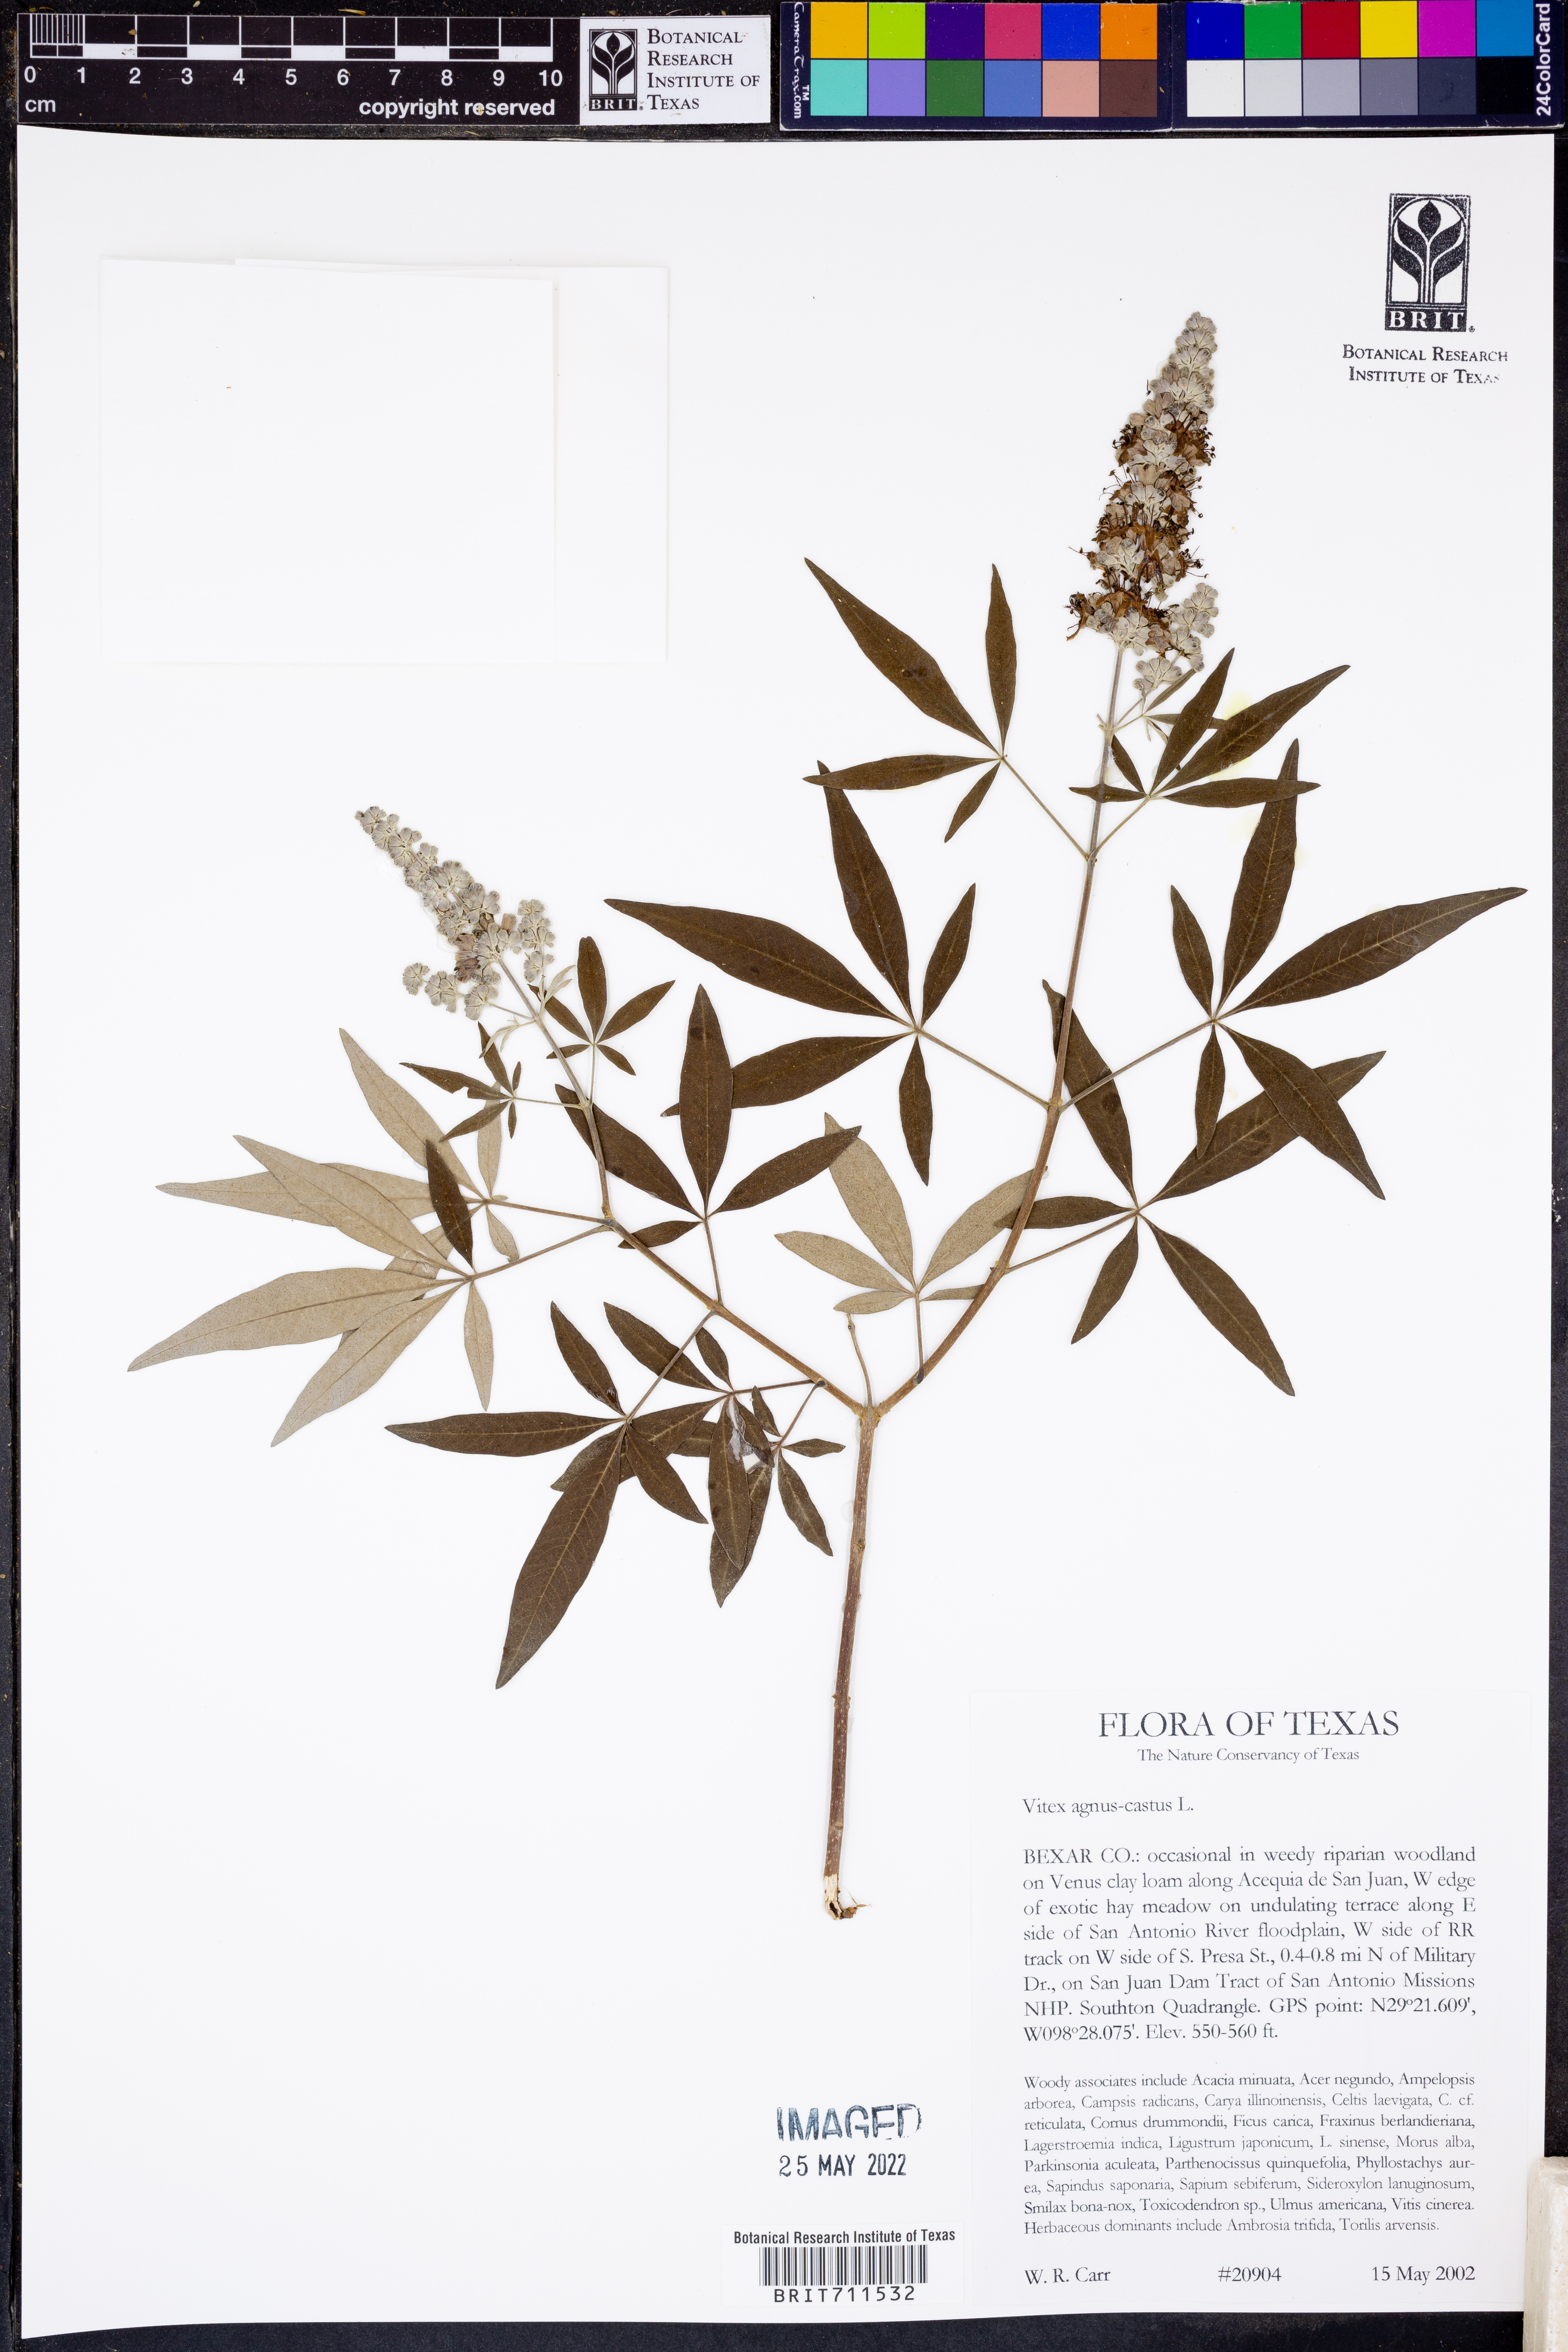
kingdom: Plantae
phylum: Tracheophyta
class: Magnoliopsida
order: Lamiales
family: Lamiaceae
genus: Vitex
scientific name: Vitex agnus-castus
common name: Chasteberry
